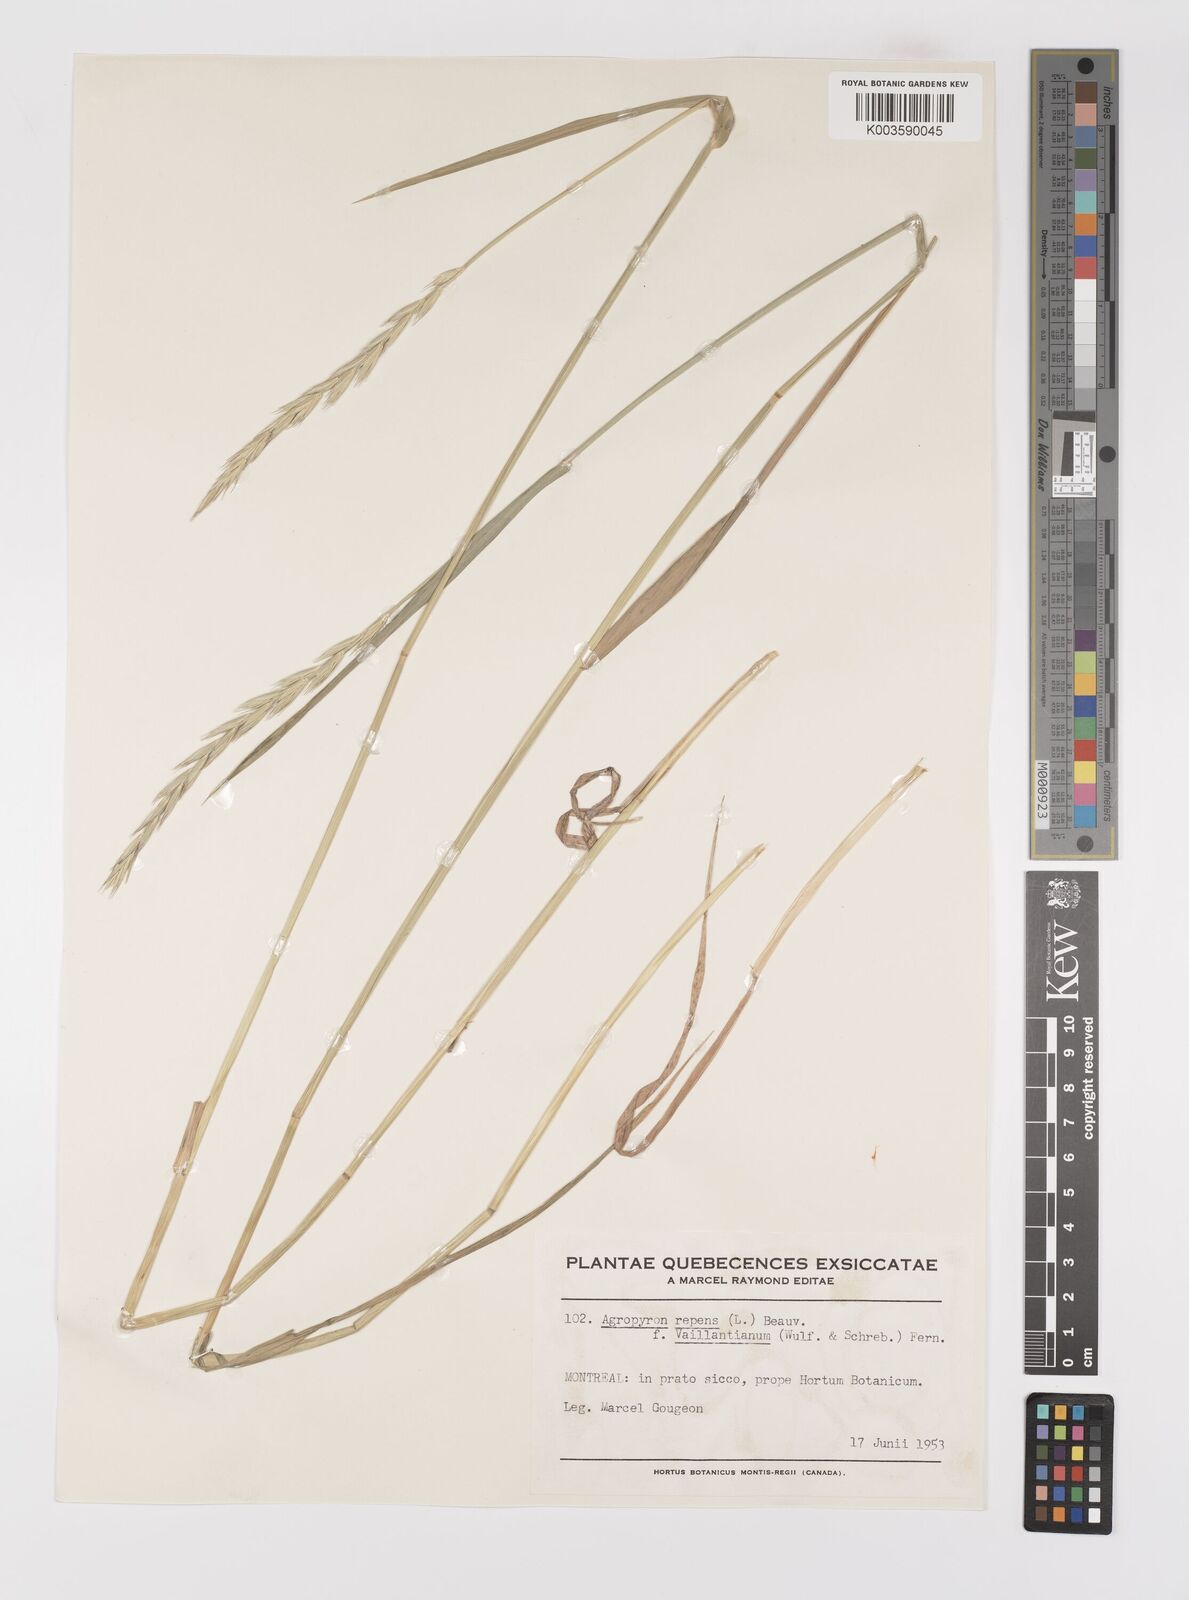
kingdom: Plantae
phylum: Tracheophyta
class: Liliopsida
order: Poales
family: Poaceae
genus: Elymus
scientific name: Elymus repens
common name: Quackgrass
